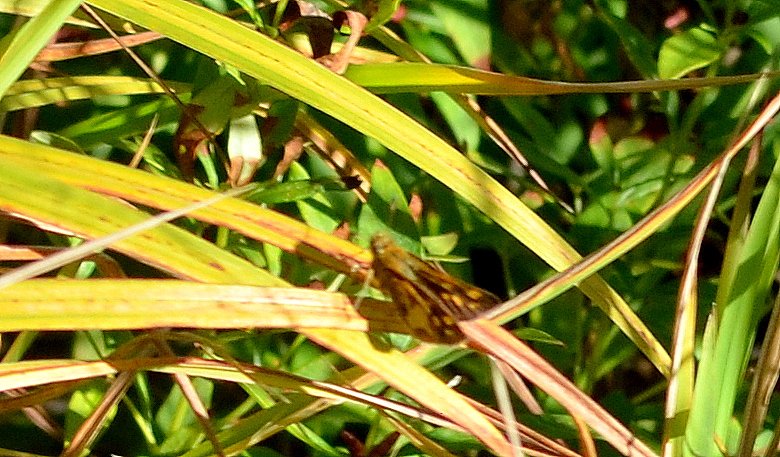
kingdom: Animalia
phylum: Arthropoda
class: Insecta
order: Lepidoptera
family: Hesperiidae
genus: Polites
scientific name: Polites coras
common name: Peck's Skipper
